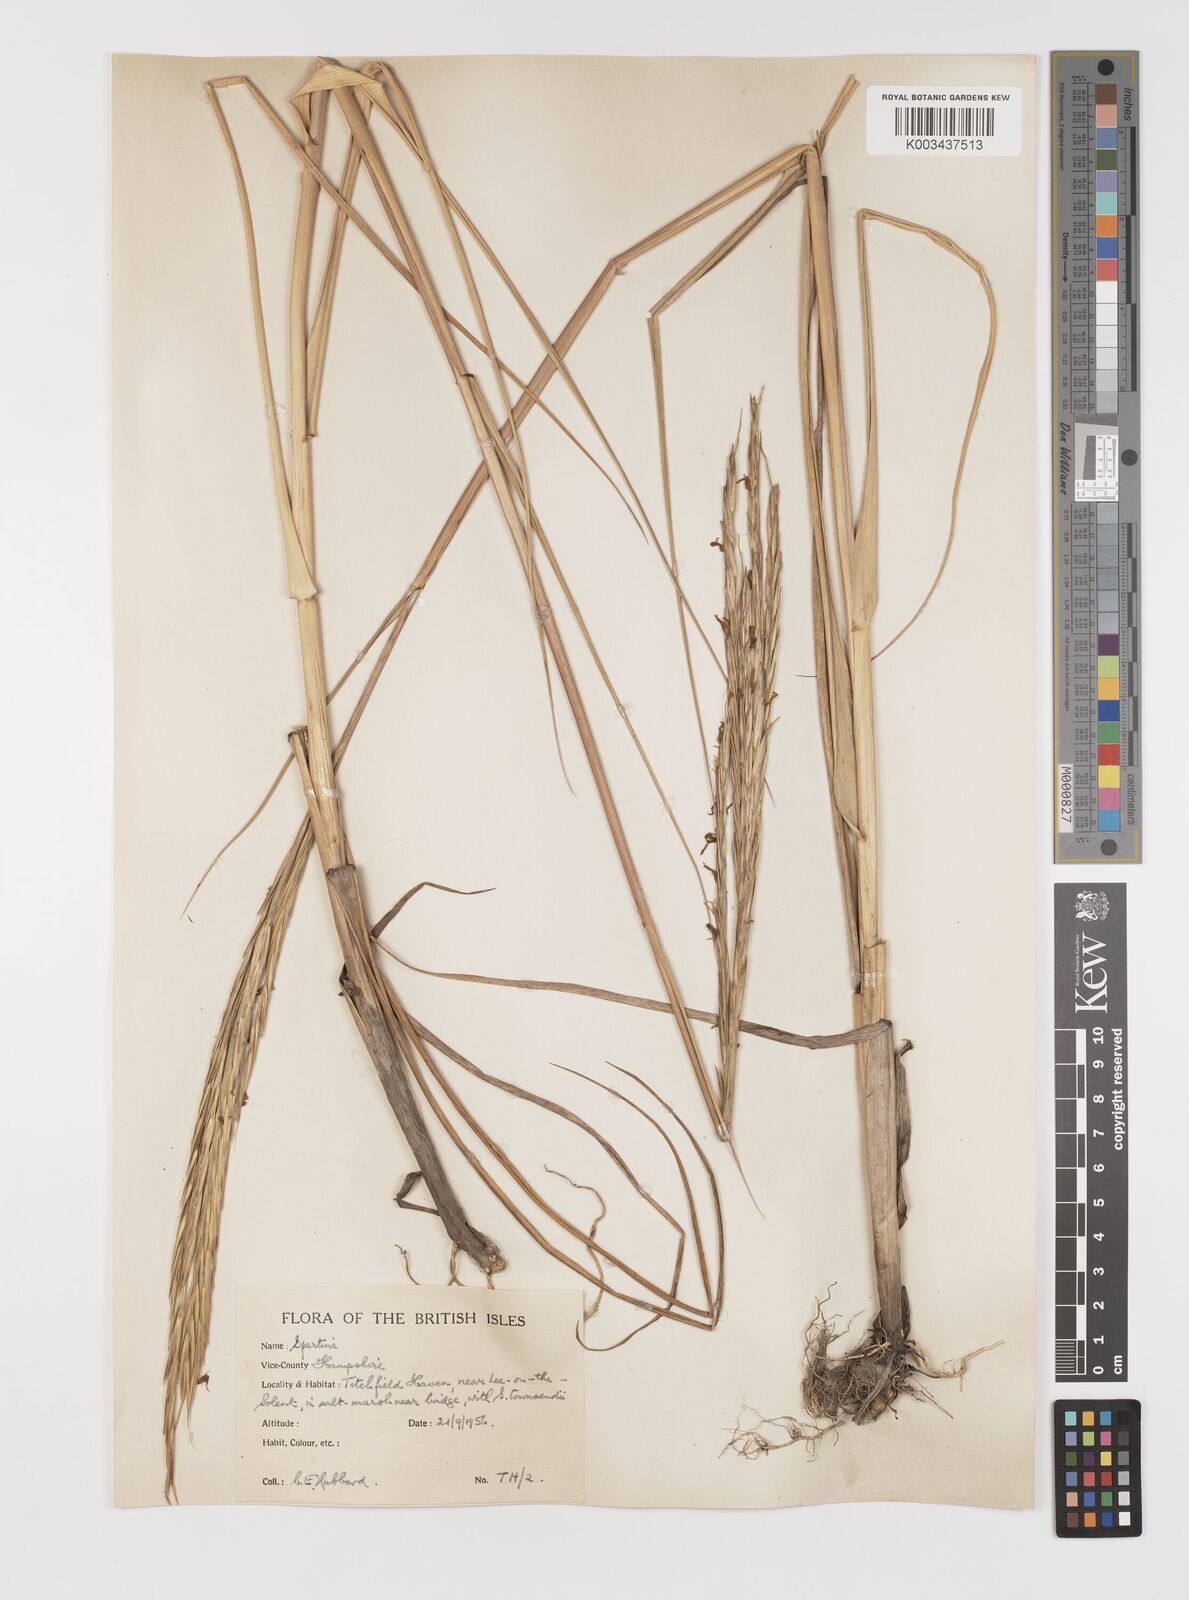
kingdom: Plantae
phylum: Tracheophyta
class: Liliopsida
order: Poales
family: Poaceae
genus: Sporobolus
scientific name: Sporobolus anglicus
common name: English cordgrass
